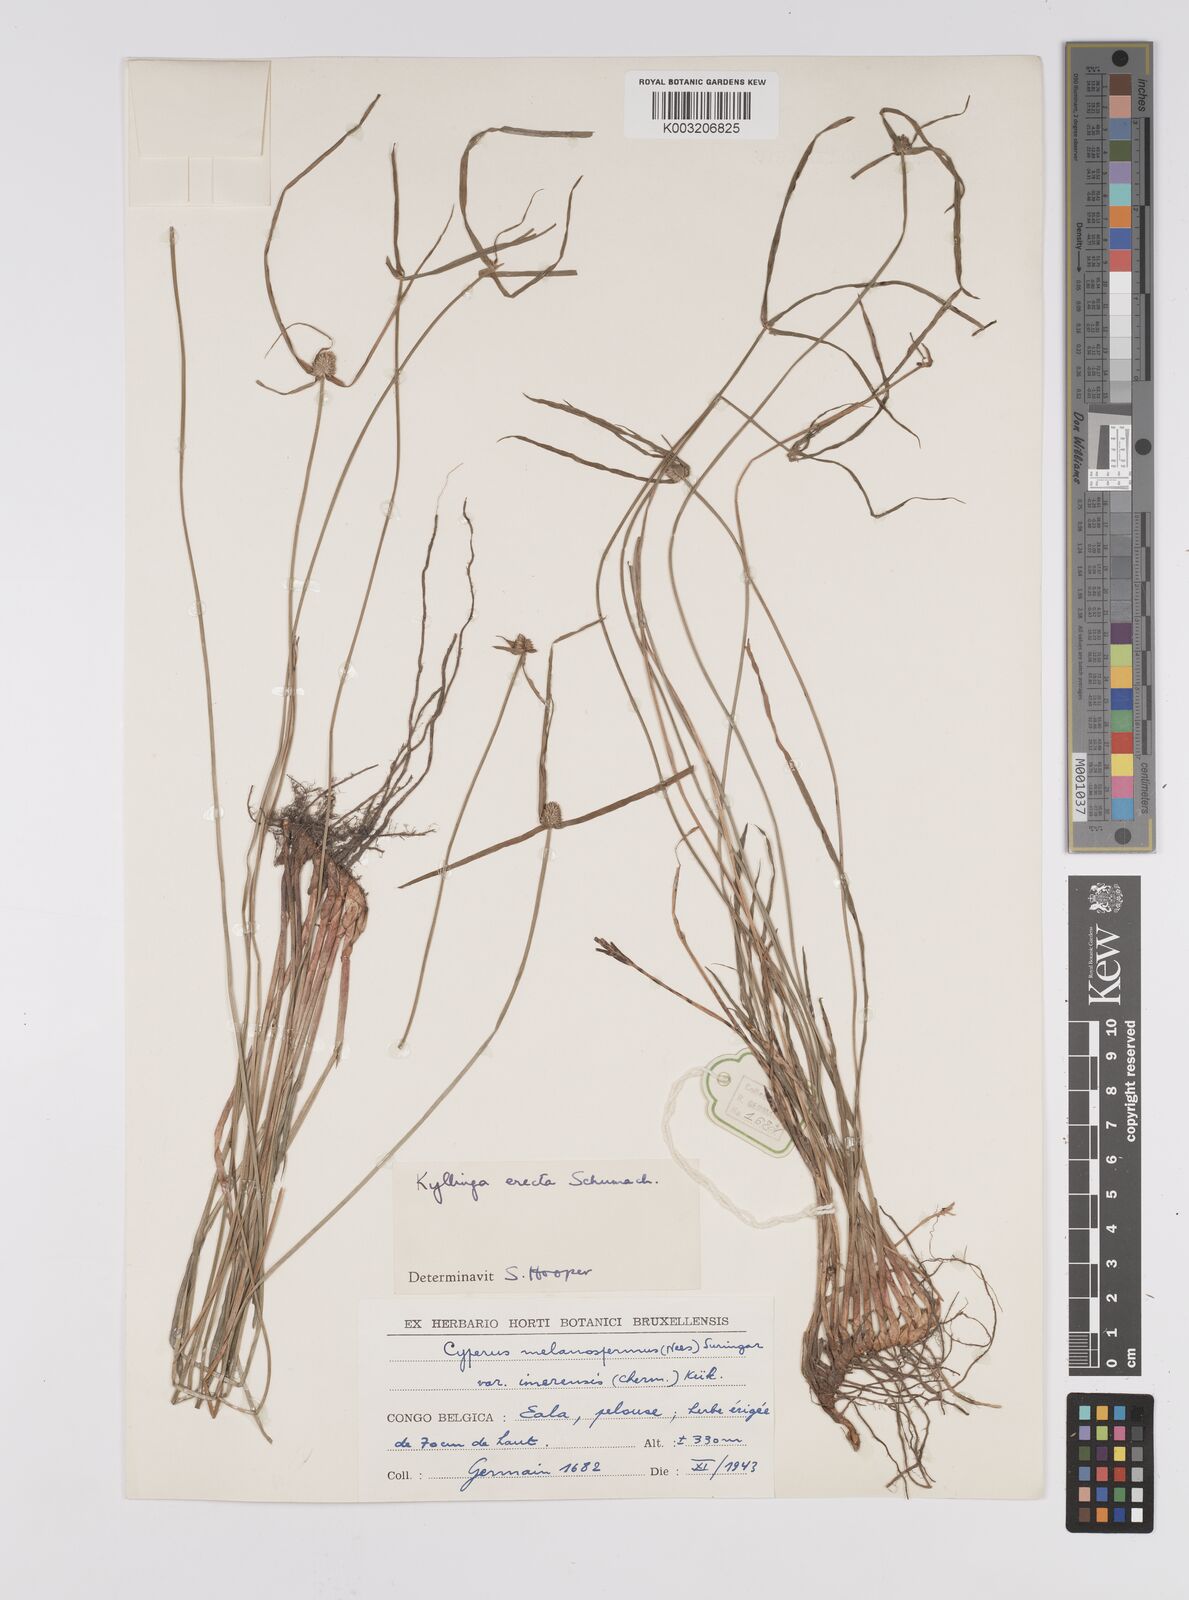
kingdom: Plantae
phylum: Tracheophyta
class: Liliopsida
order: Poales
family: Cyperaceae
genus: Cyperus
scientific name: Cyperus erectus
